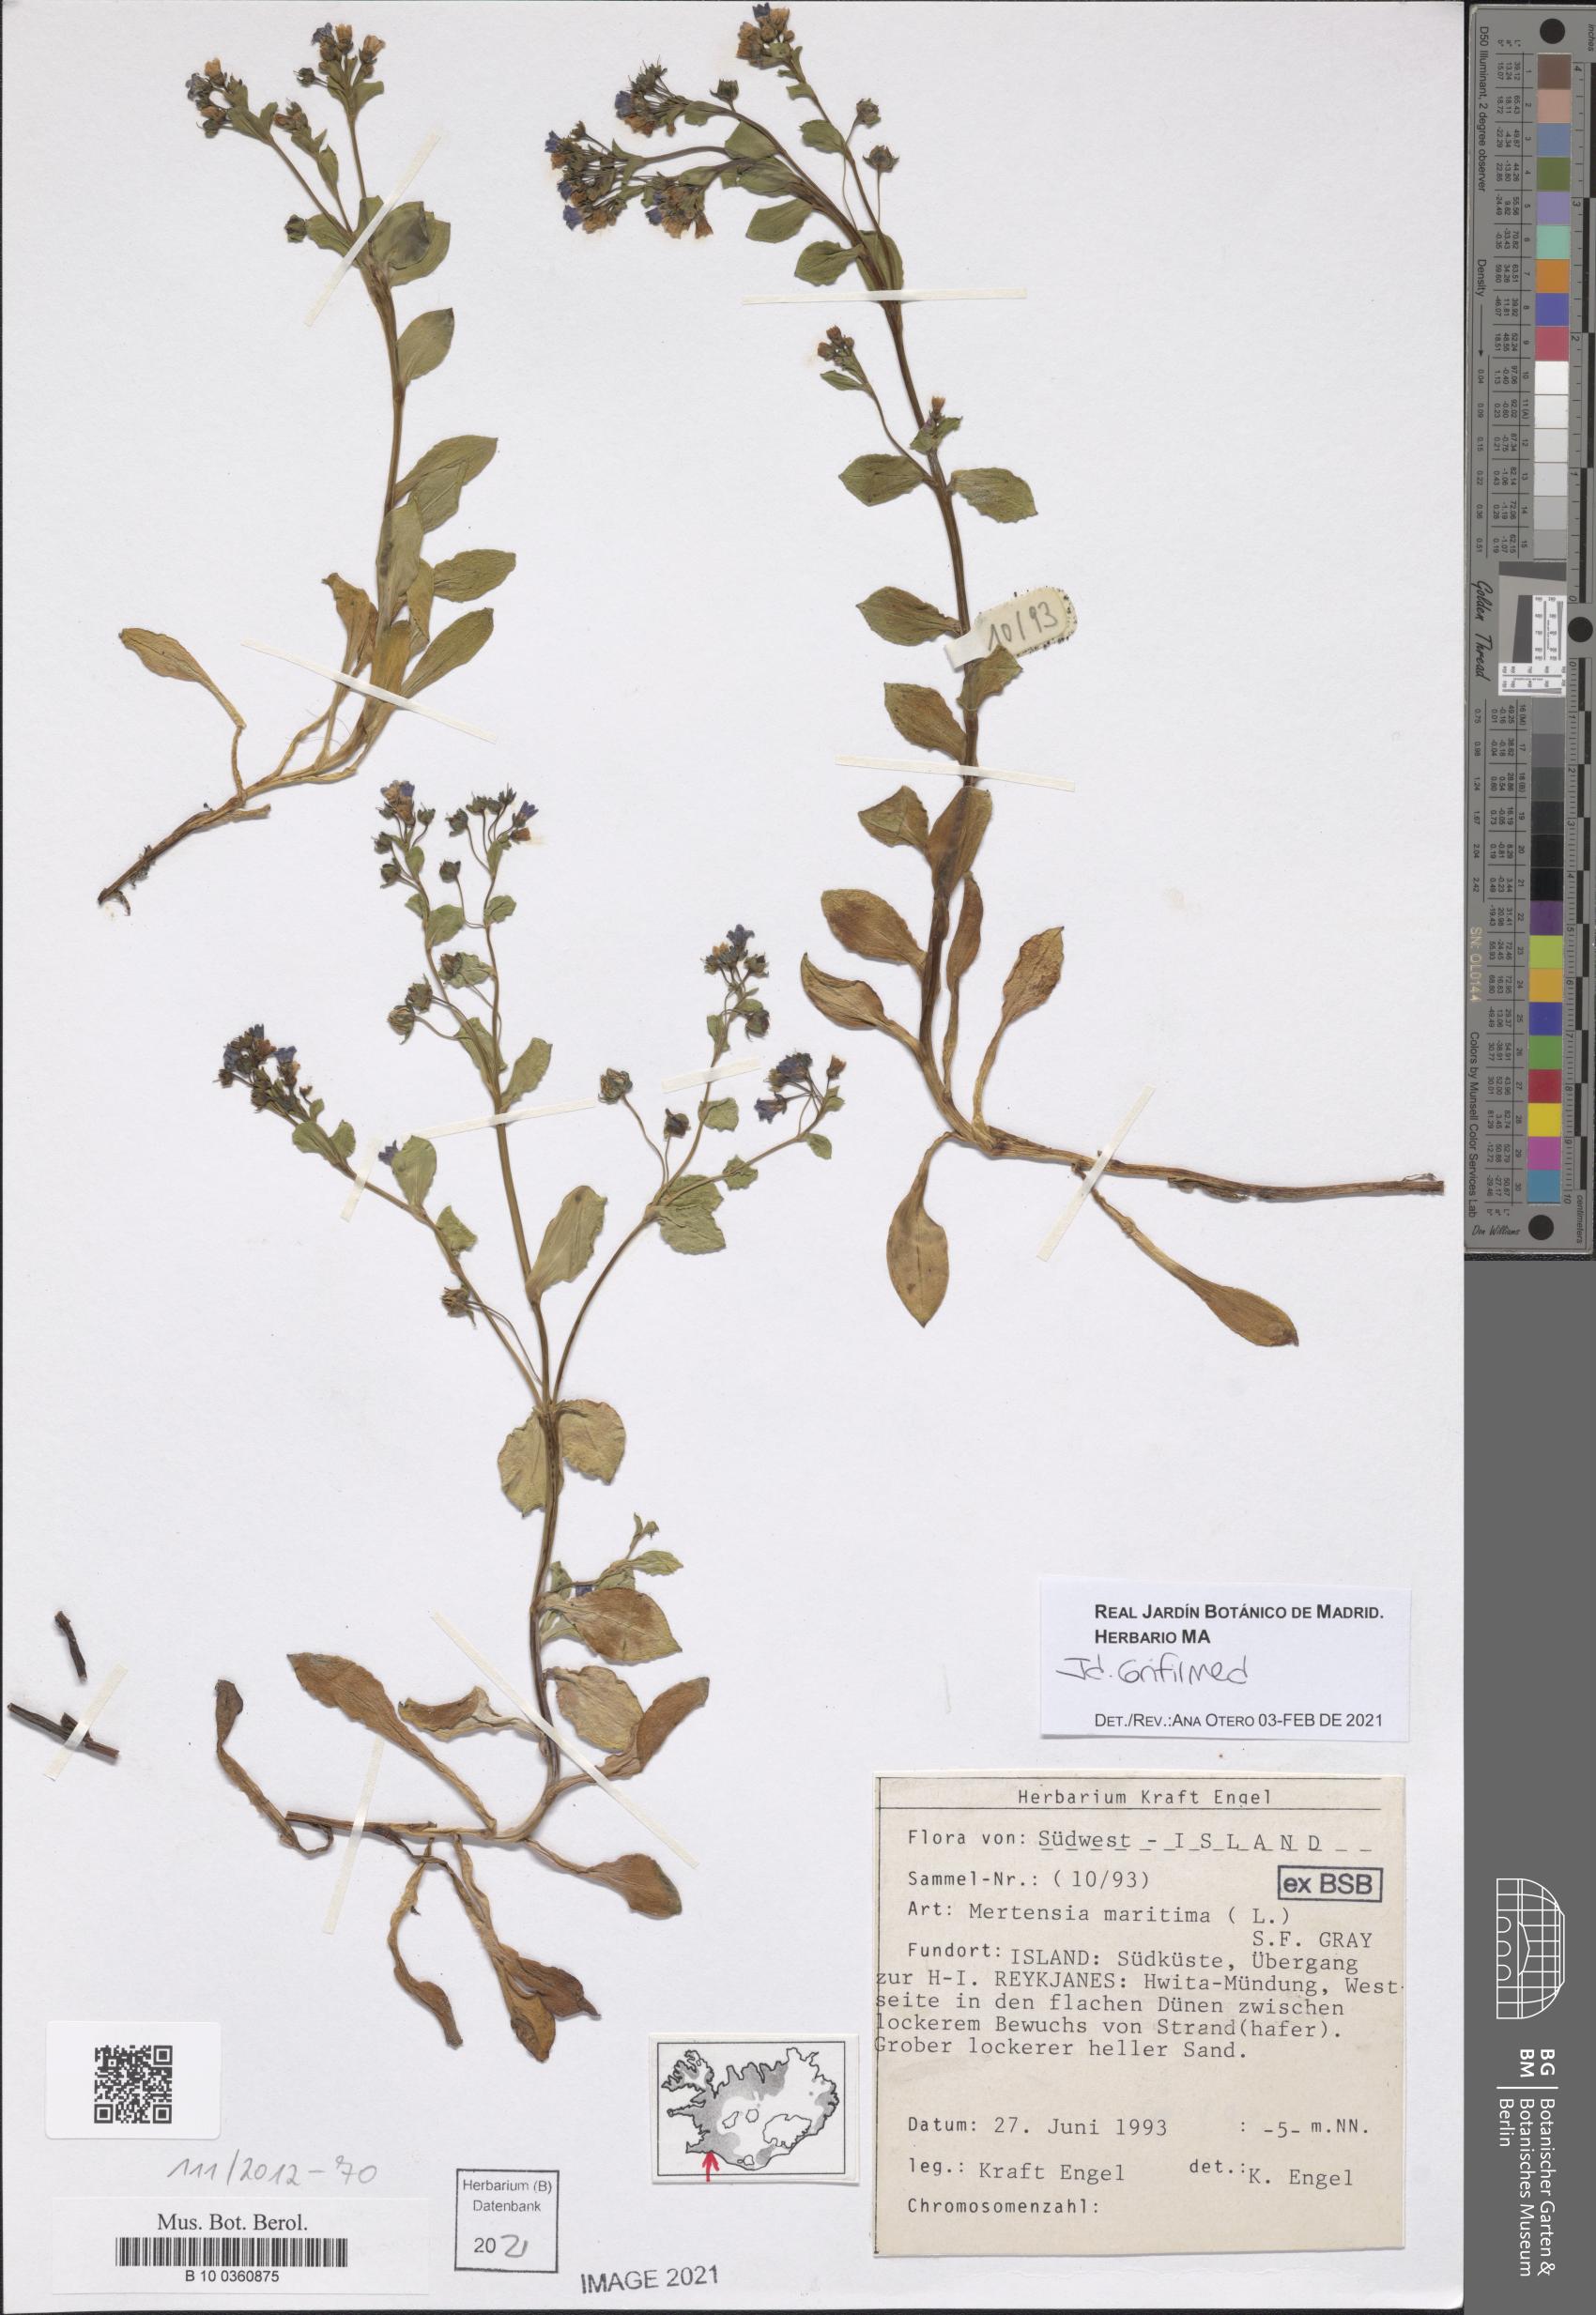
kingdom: Plantae
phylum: Tracheophyta
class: Magnoliopsida
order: Boraginales
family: Boraginaceae
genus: Mertensia
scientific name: Mertensia maritima
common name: Oysterplant
